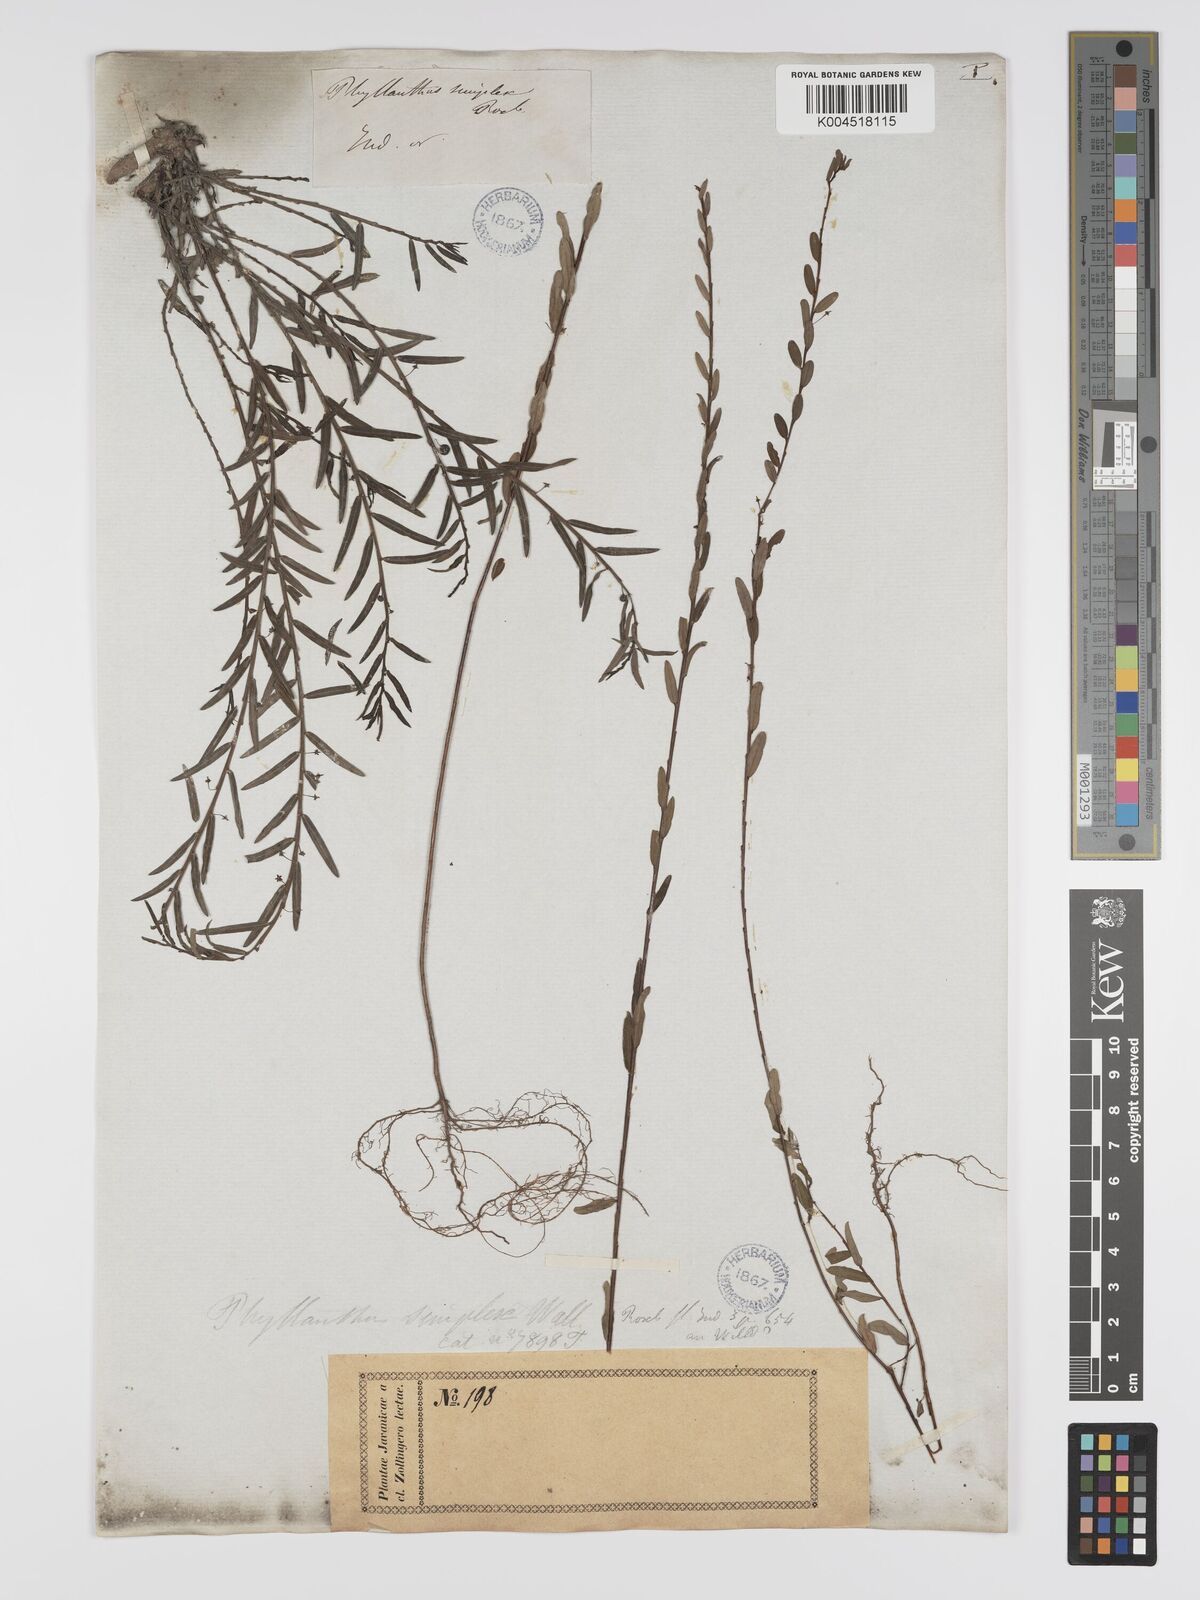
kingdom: Plantae
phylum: Tracheophyta
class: Magnoliopsida
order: Malpighiales
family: Phyllanthaceae
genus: Phyllanthus
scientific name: Phyllanthus virgatus
